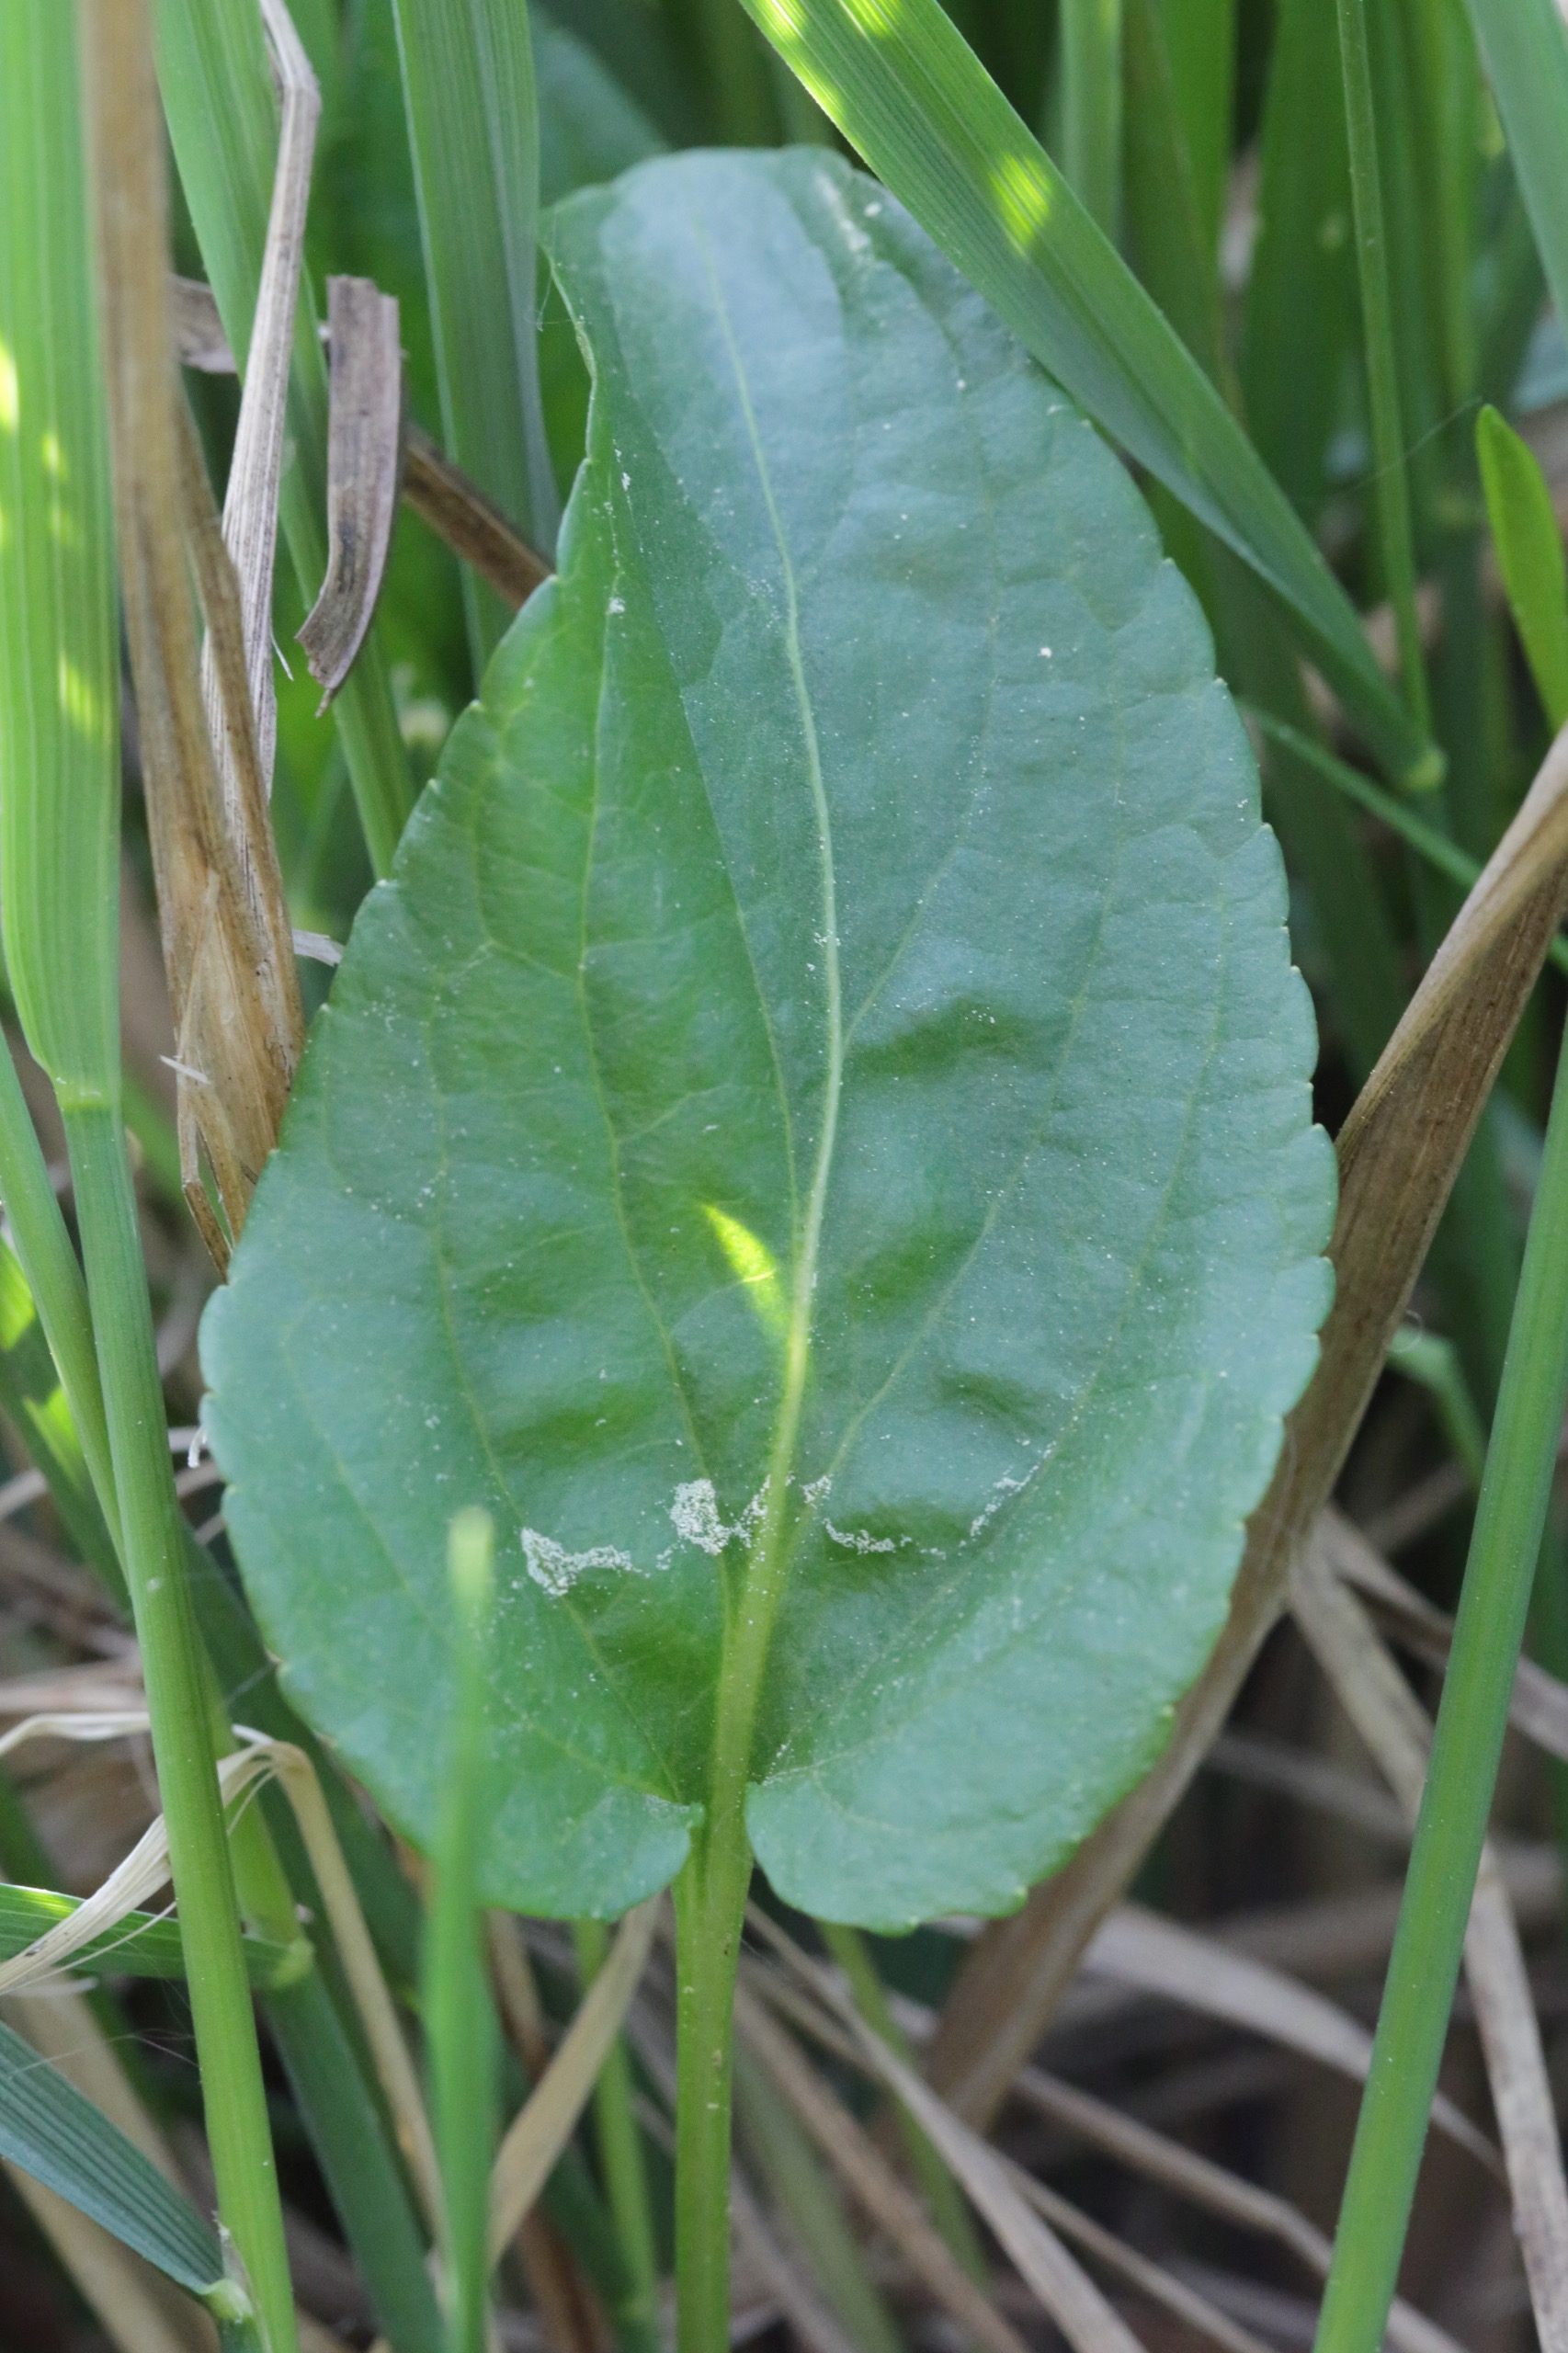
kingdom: Plantae
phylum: Tracheophyta
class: Magnoliopsida
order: Malpighiales
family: Violaceae
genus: Viola
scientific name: Viola uliginosa
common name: Sump-viol
